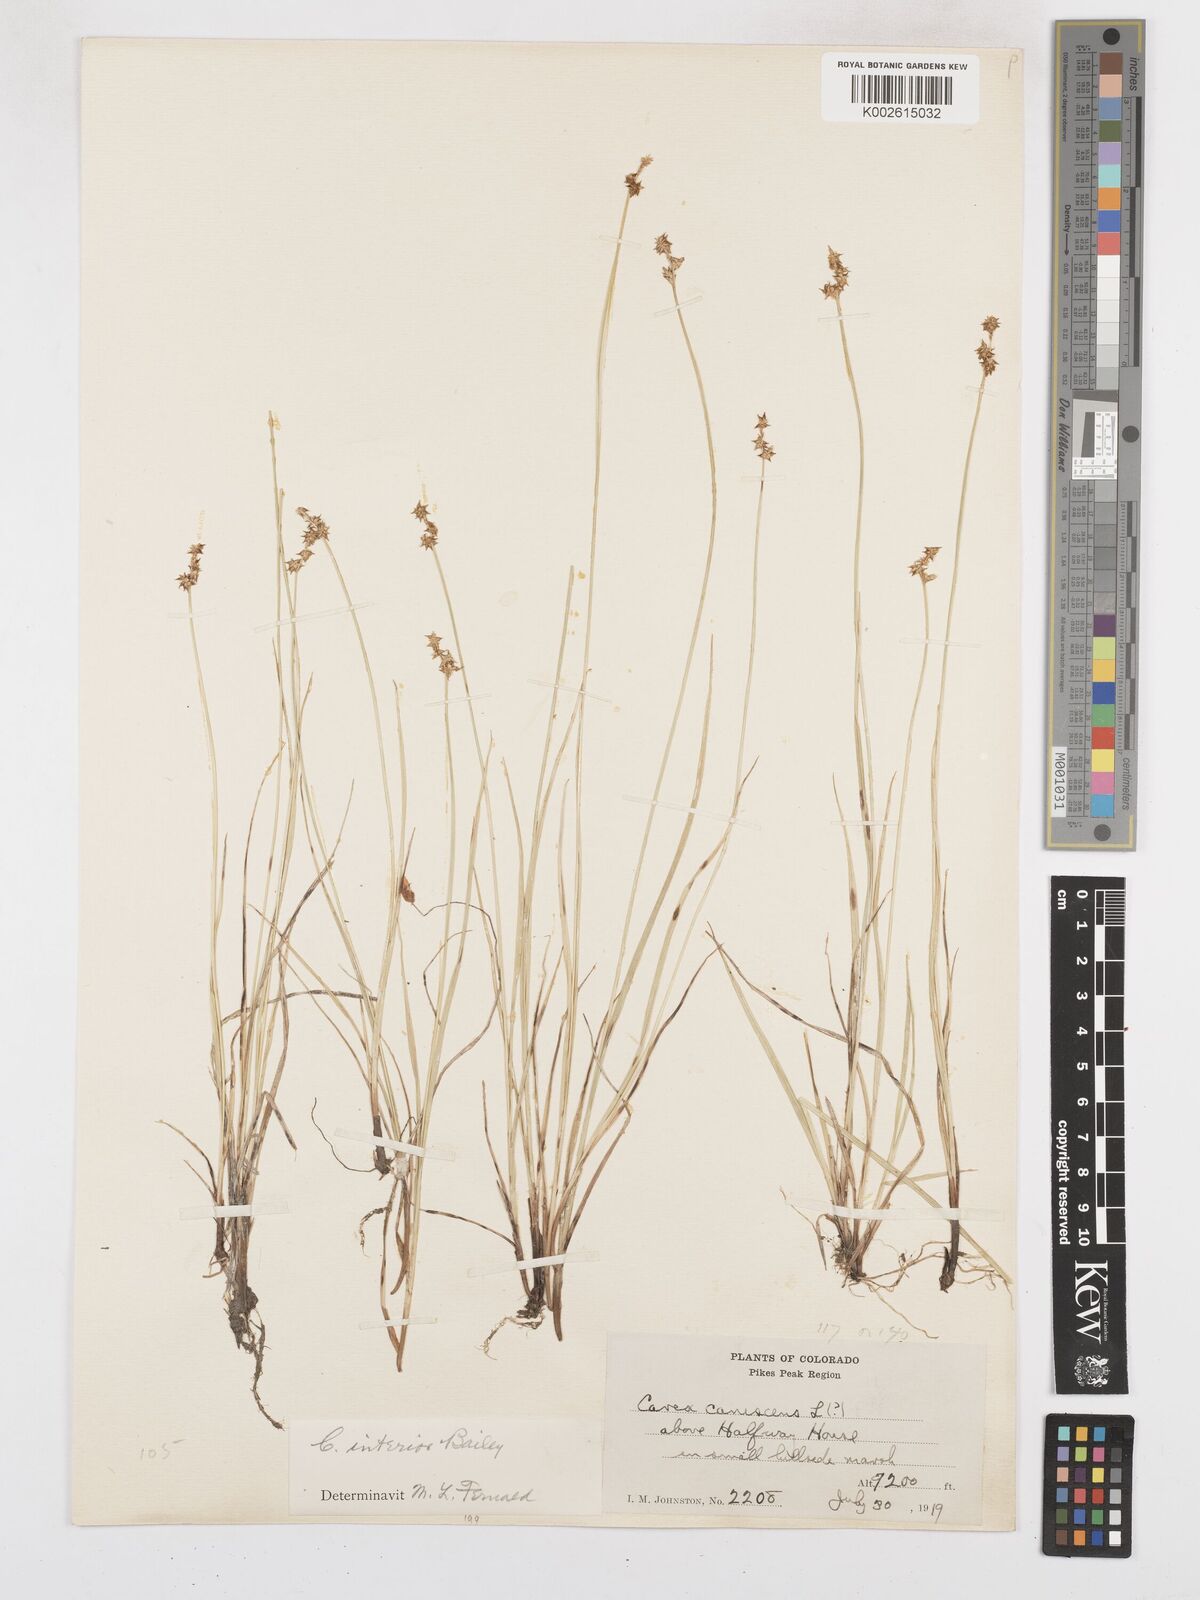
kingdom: Plantae
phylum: Tracheophyta
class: Liliopsida
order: Poales
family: Cyperaceae
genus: Carex
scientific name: Carex interior
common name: Inland sedge
